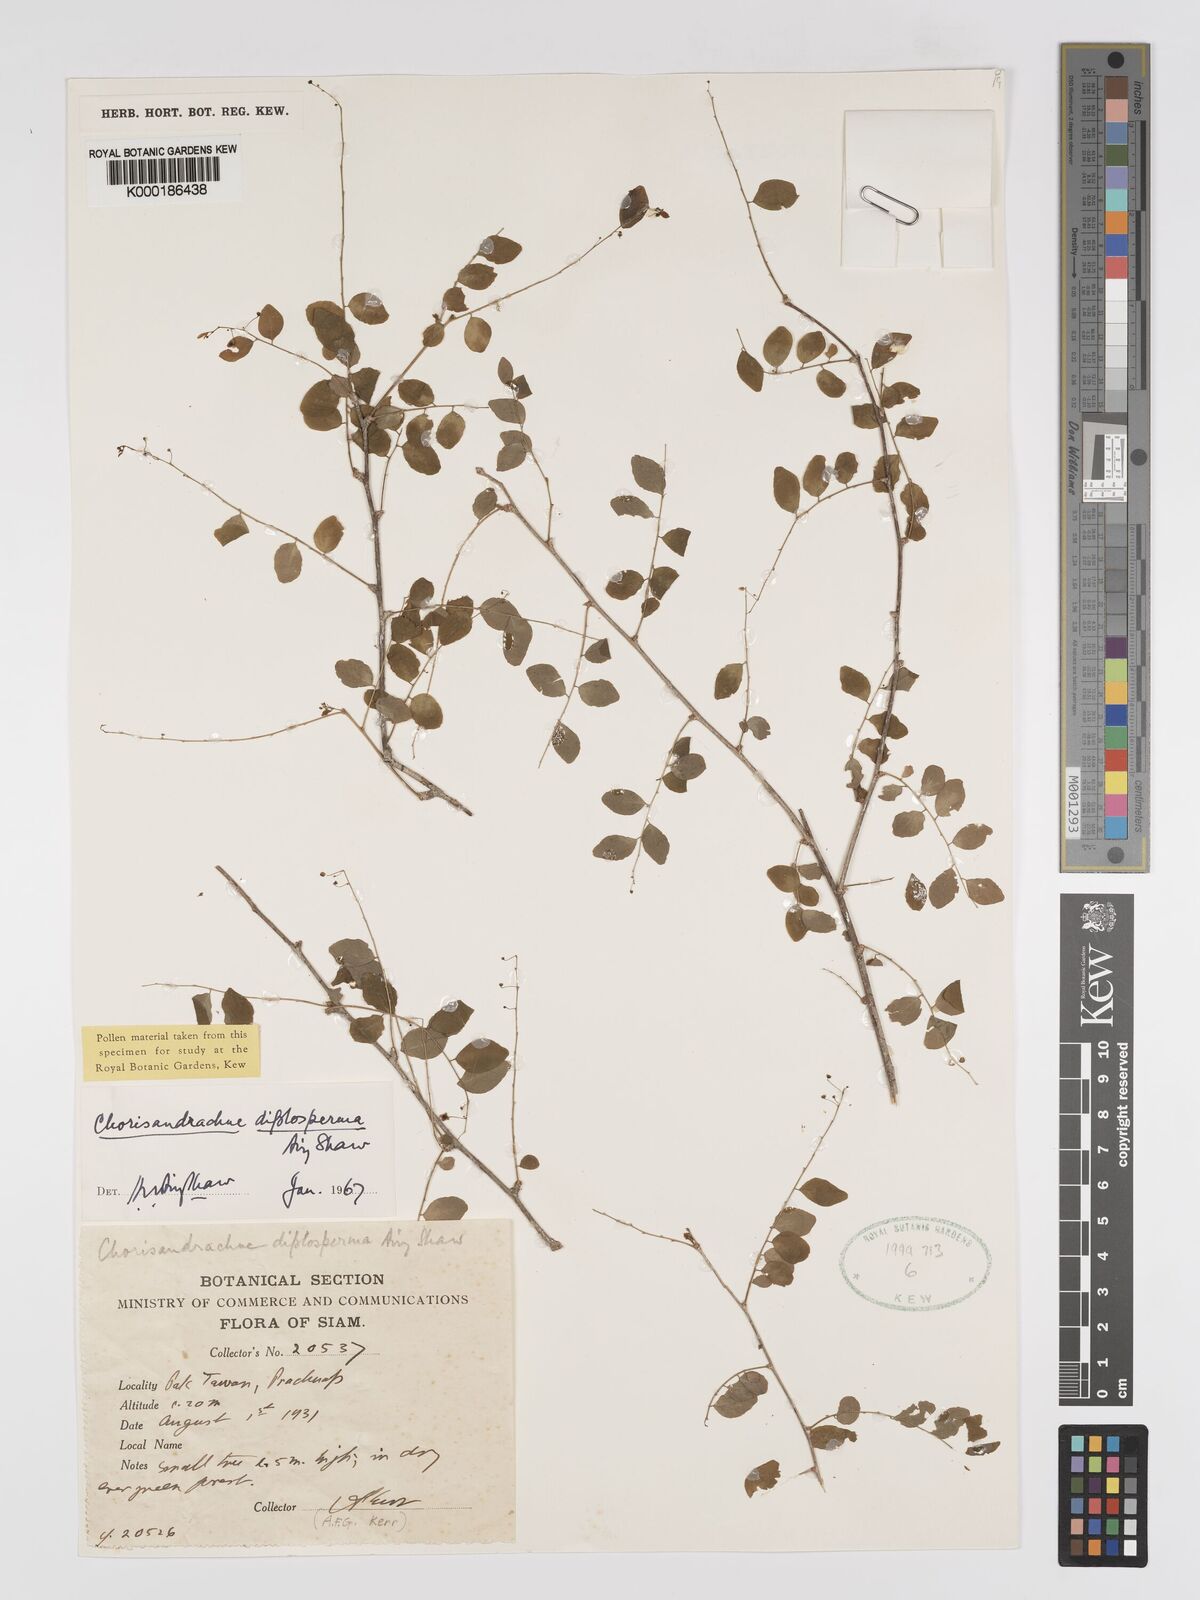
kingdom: Plantae
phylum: Tracheophyta
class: Magnoliopsida
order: Malpighiales
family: Phyllanthaceae
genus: Andrachne
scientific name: Andrachne
